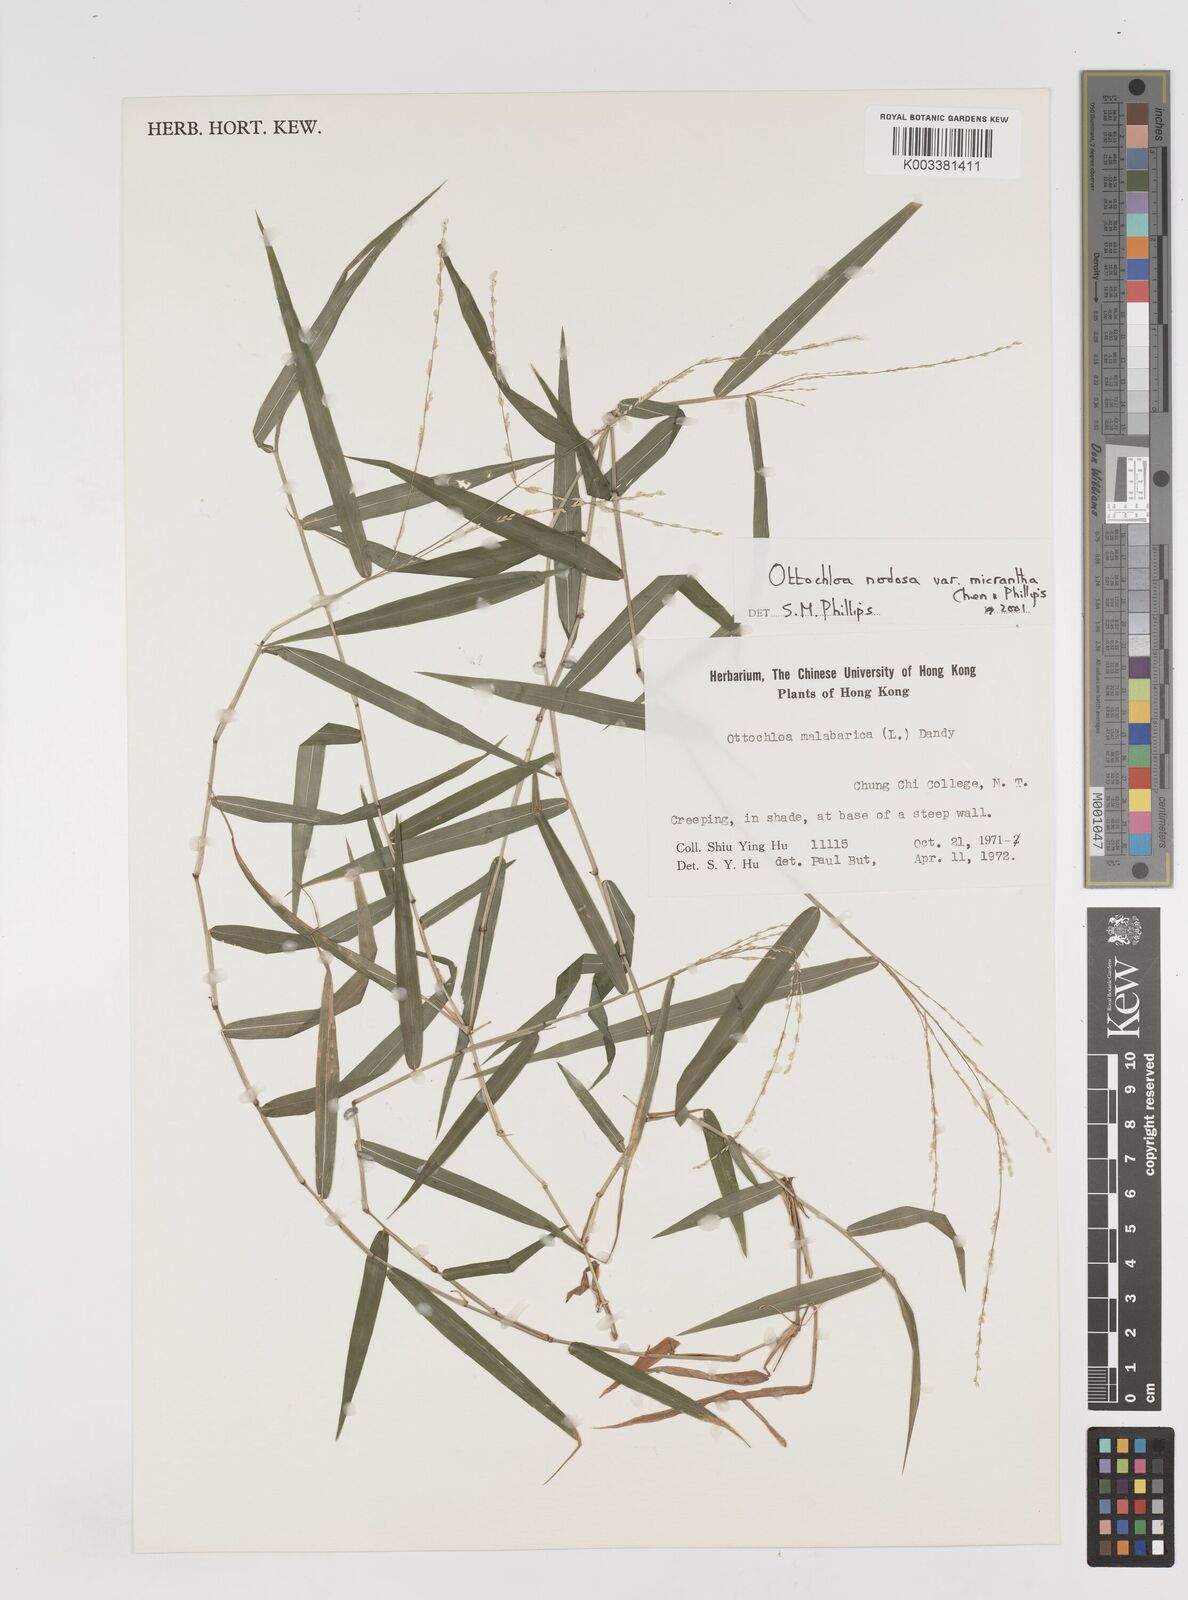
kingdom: Plantae
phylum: Tracheophyta
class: Liliopsida
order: Poales
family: Poaceae
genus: Ottochloa
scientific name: Ottochloa nodosa
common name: Slender-panic grass
